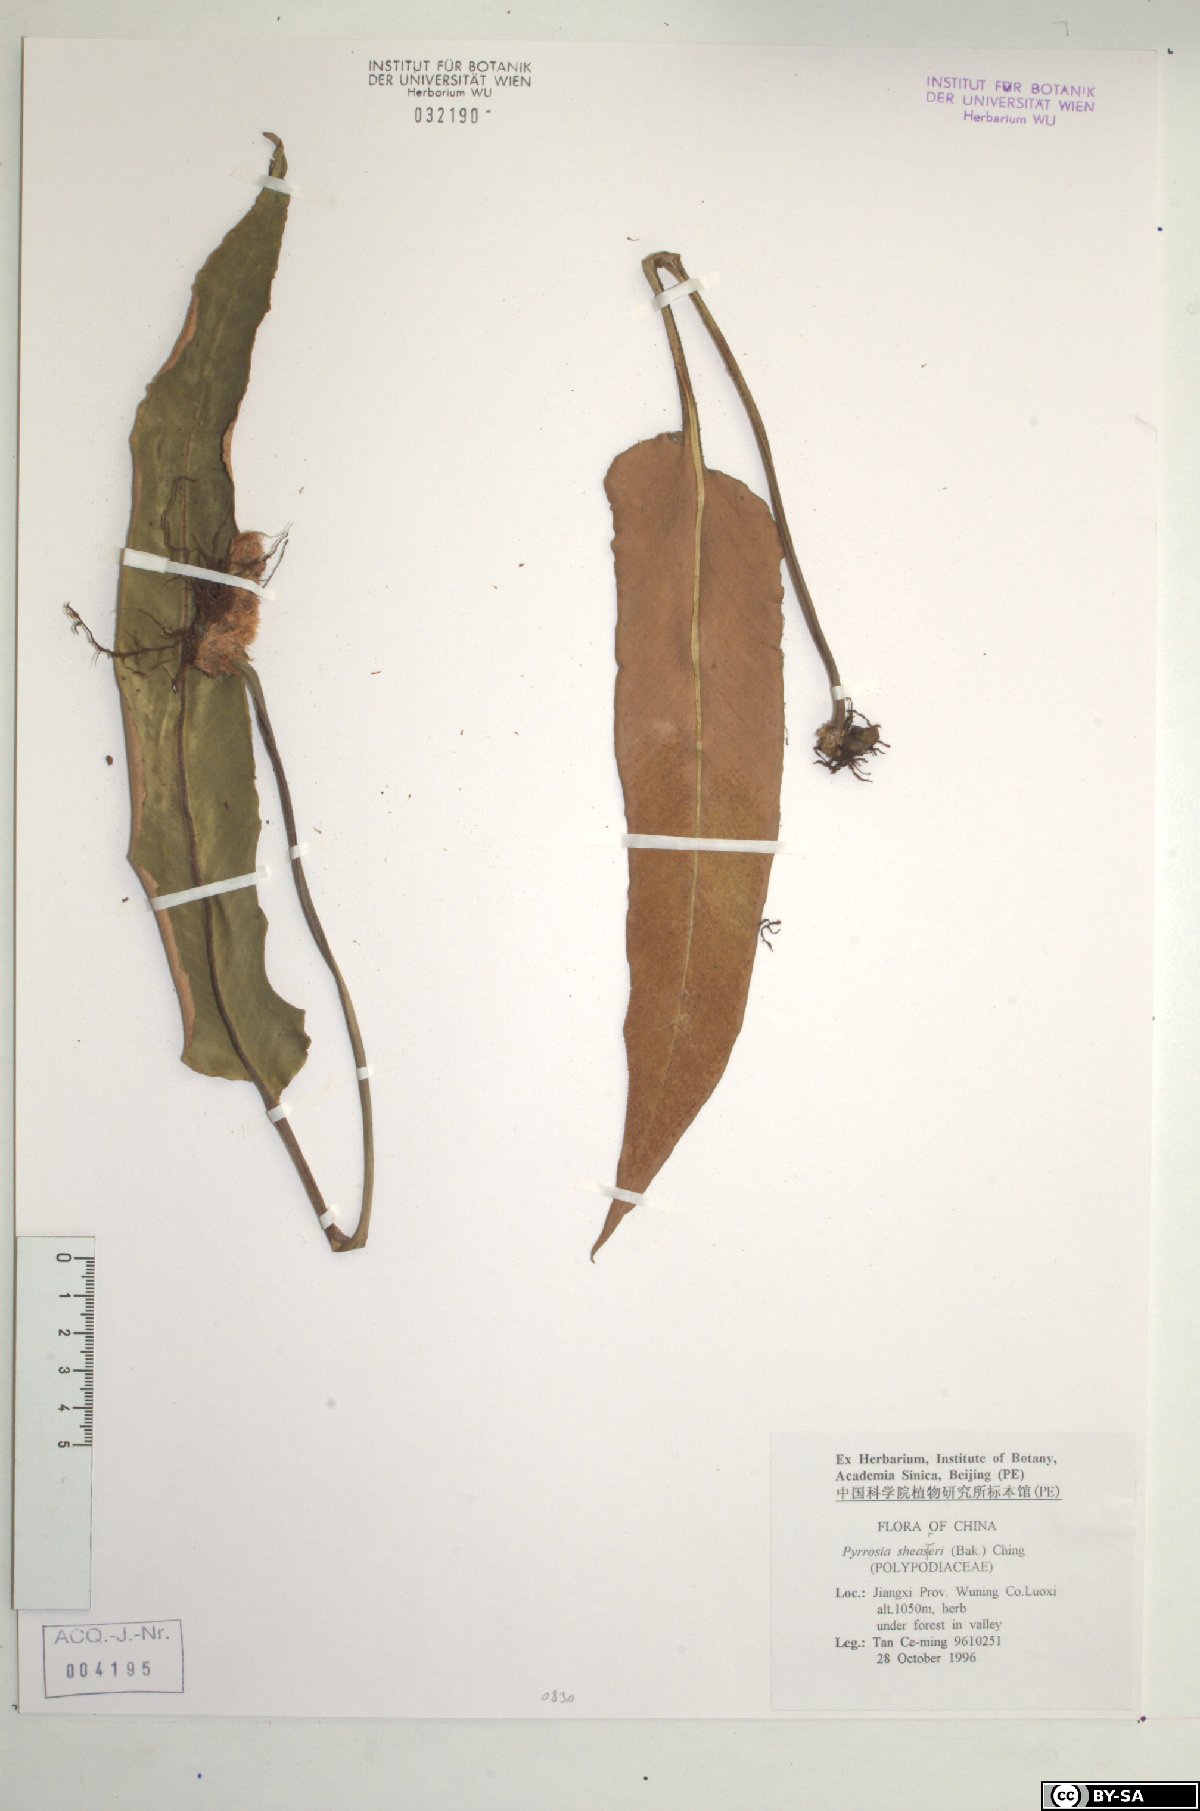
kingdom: Plantae
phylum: Tracheophyta
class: Polypodiopsida
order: Polypodiales
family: Polypodiaceae
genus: Pyrrosia
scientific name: Pyrrosia sheareri
